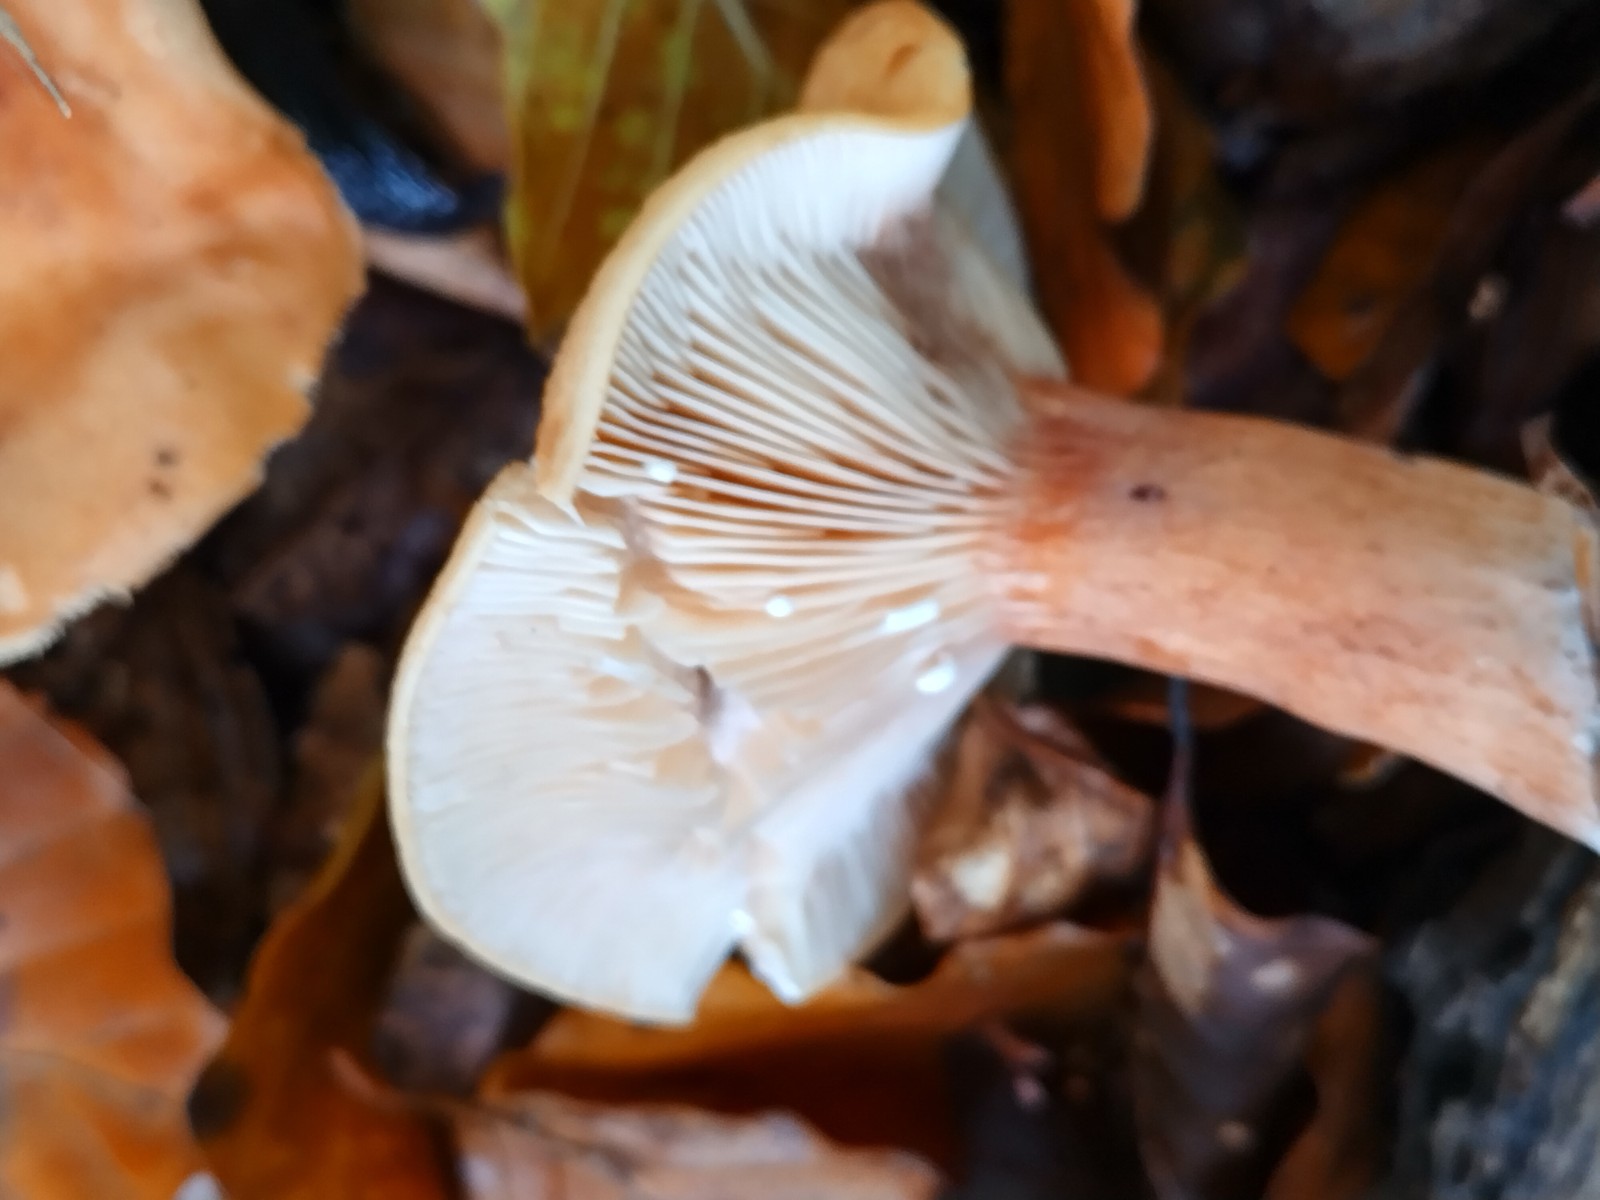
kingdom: Fungi
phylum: Basidiomycota
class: Agaricomycetes
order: Russulales
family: Russulaceae
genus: Lactarius
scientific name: Lactarius subdulcis
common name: sødlig mælkehat
